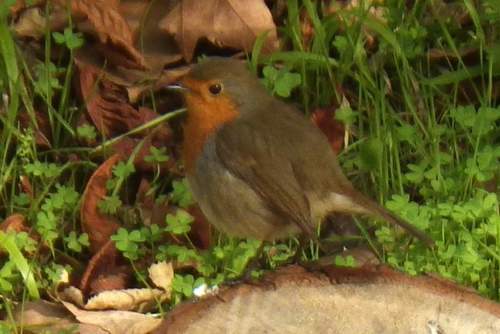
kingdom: Animalia
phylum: Chordata
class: Aves
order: Passeriformes
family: Muscicapidae
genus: Erithacus
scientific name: Erithacus rubecula
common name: European robin
